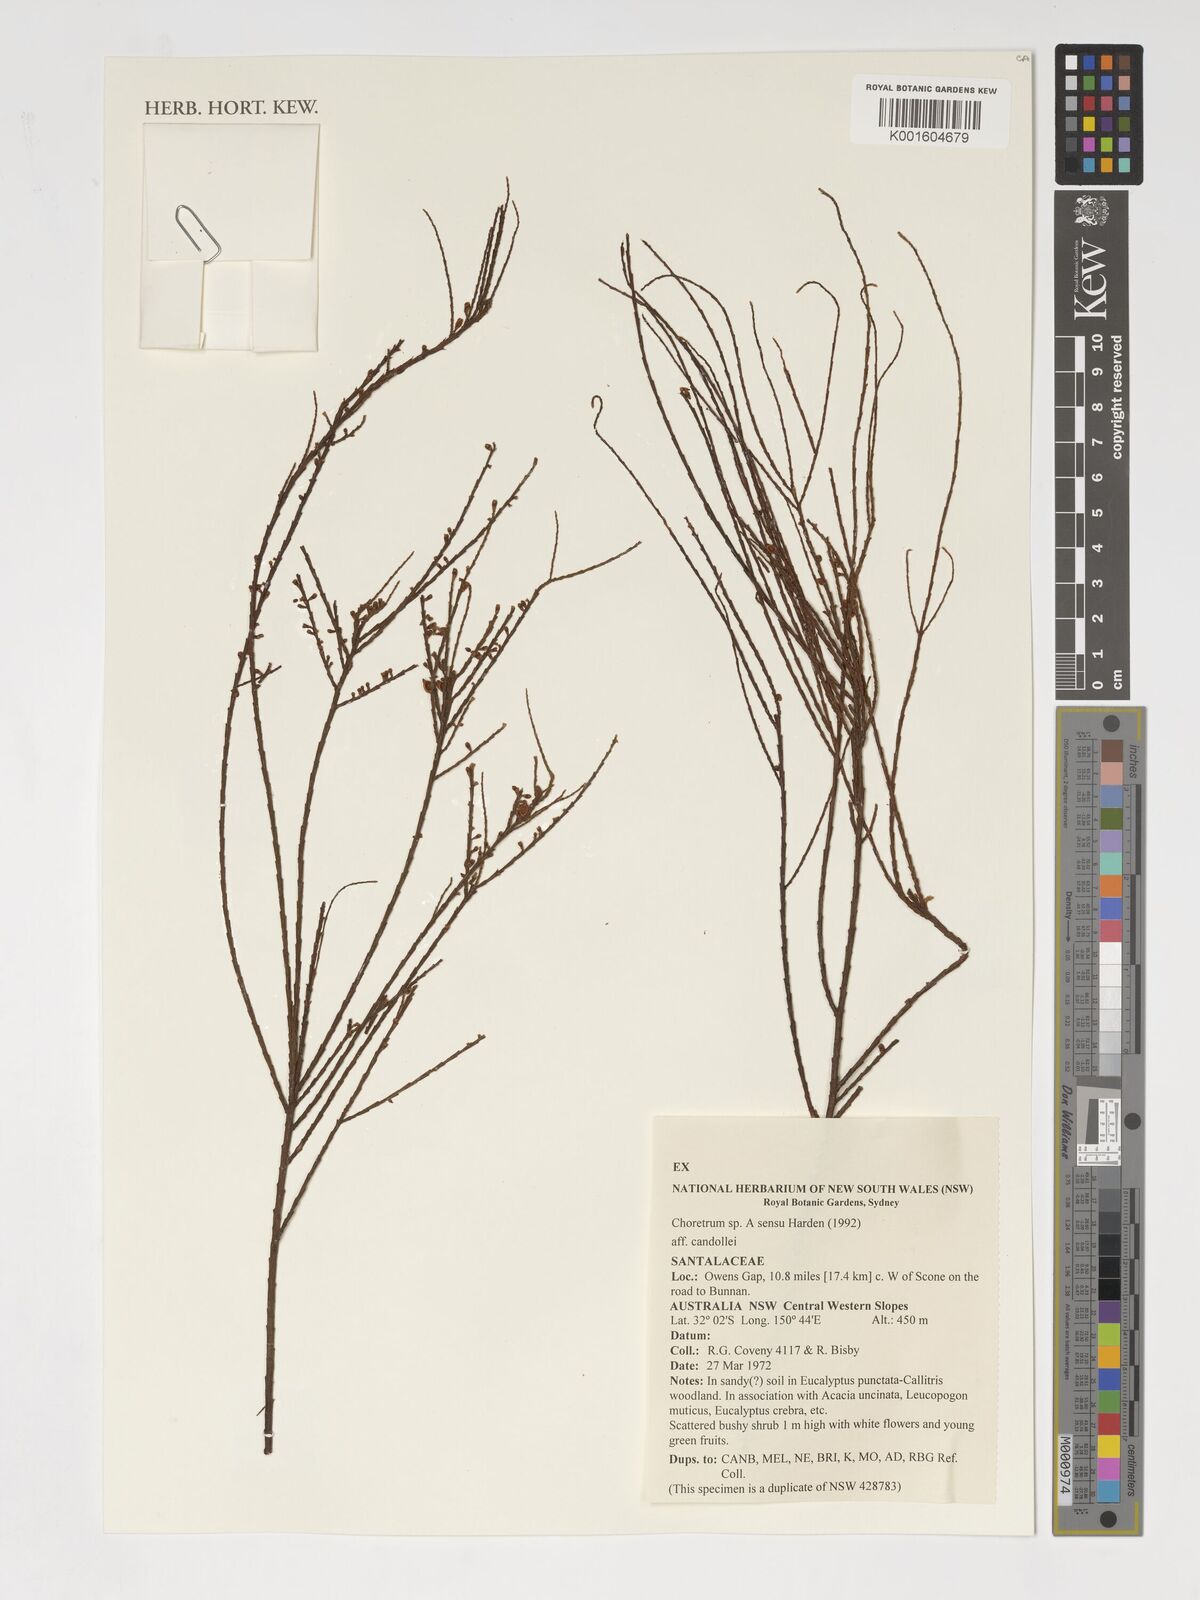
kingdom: Plantae
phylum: Tracheophyta
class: Magnoliopsida
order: Santalales
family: Amphorogynaceae
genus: Choretrum
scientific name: Choretrum
